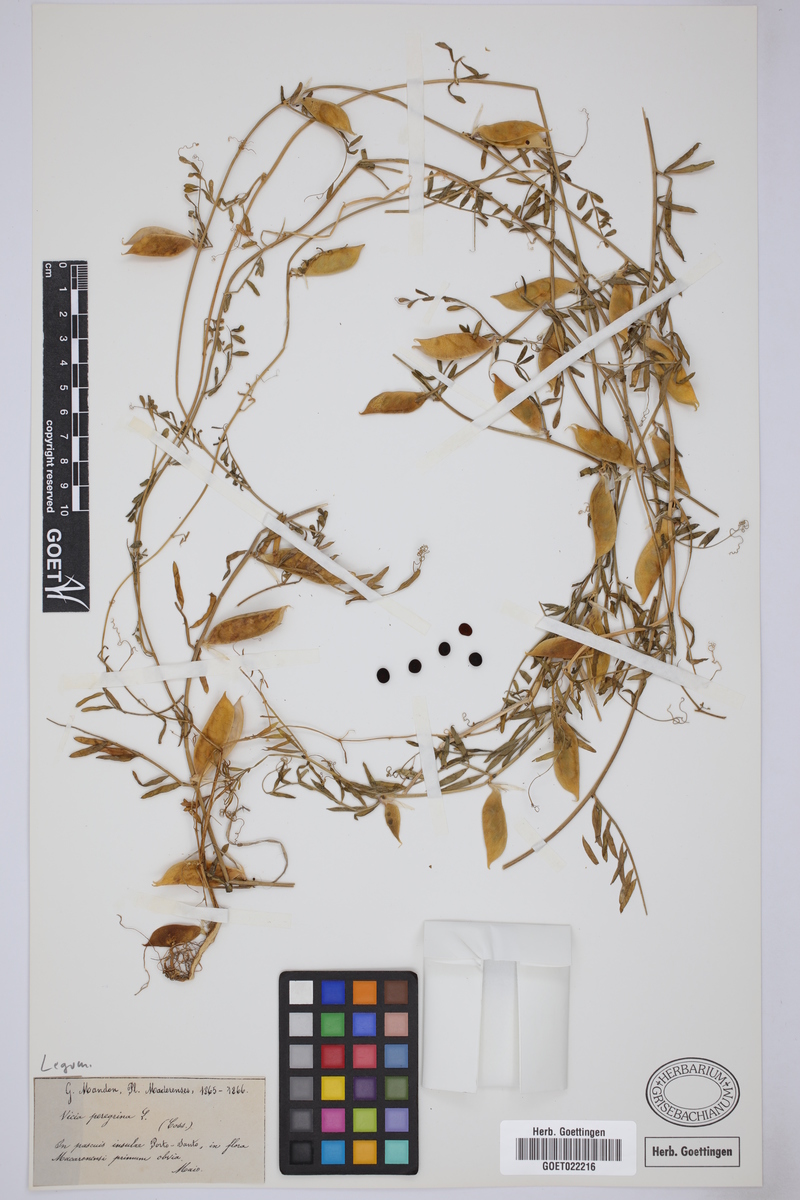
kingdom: Plantae
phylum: Tracheophyta
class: Magnoliopsida
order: Fabales
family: Fabaceae
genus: Vicia
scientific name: Vicia peregrina
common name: Broad-pod vetch
